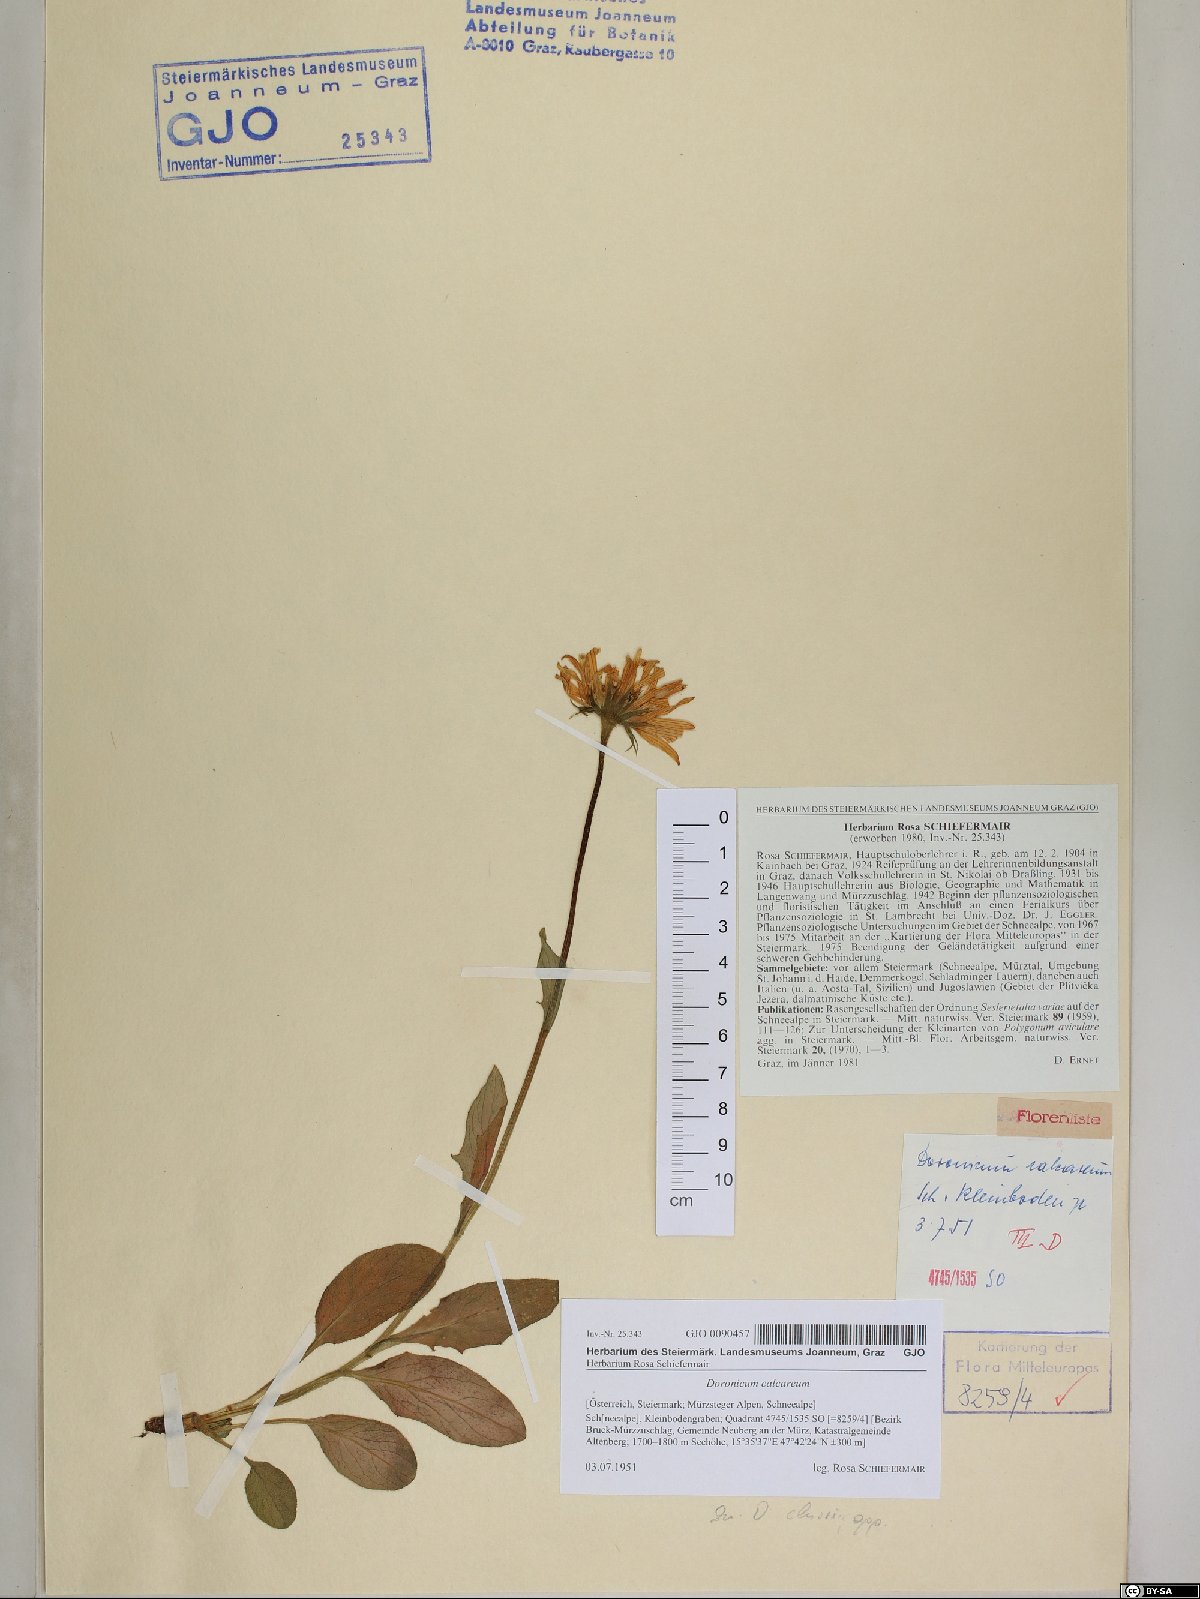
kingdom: Plantae
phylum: Tracheophyta
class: Magnoliopsida
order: Asterales
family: Asteraceae
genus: Doronicum
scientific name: Doronicum glaciale
